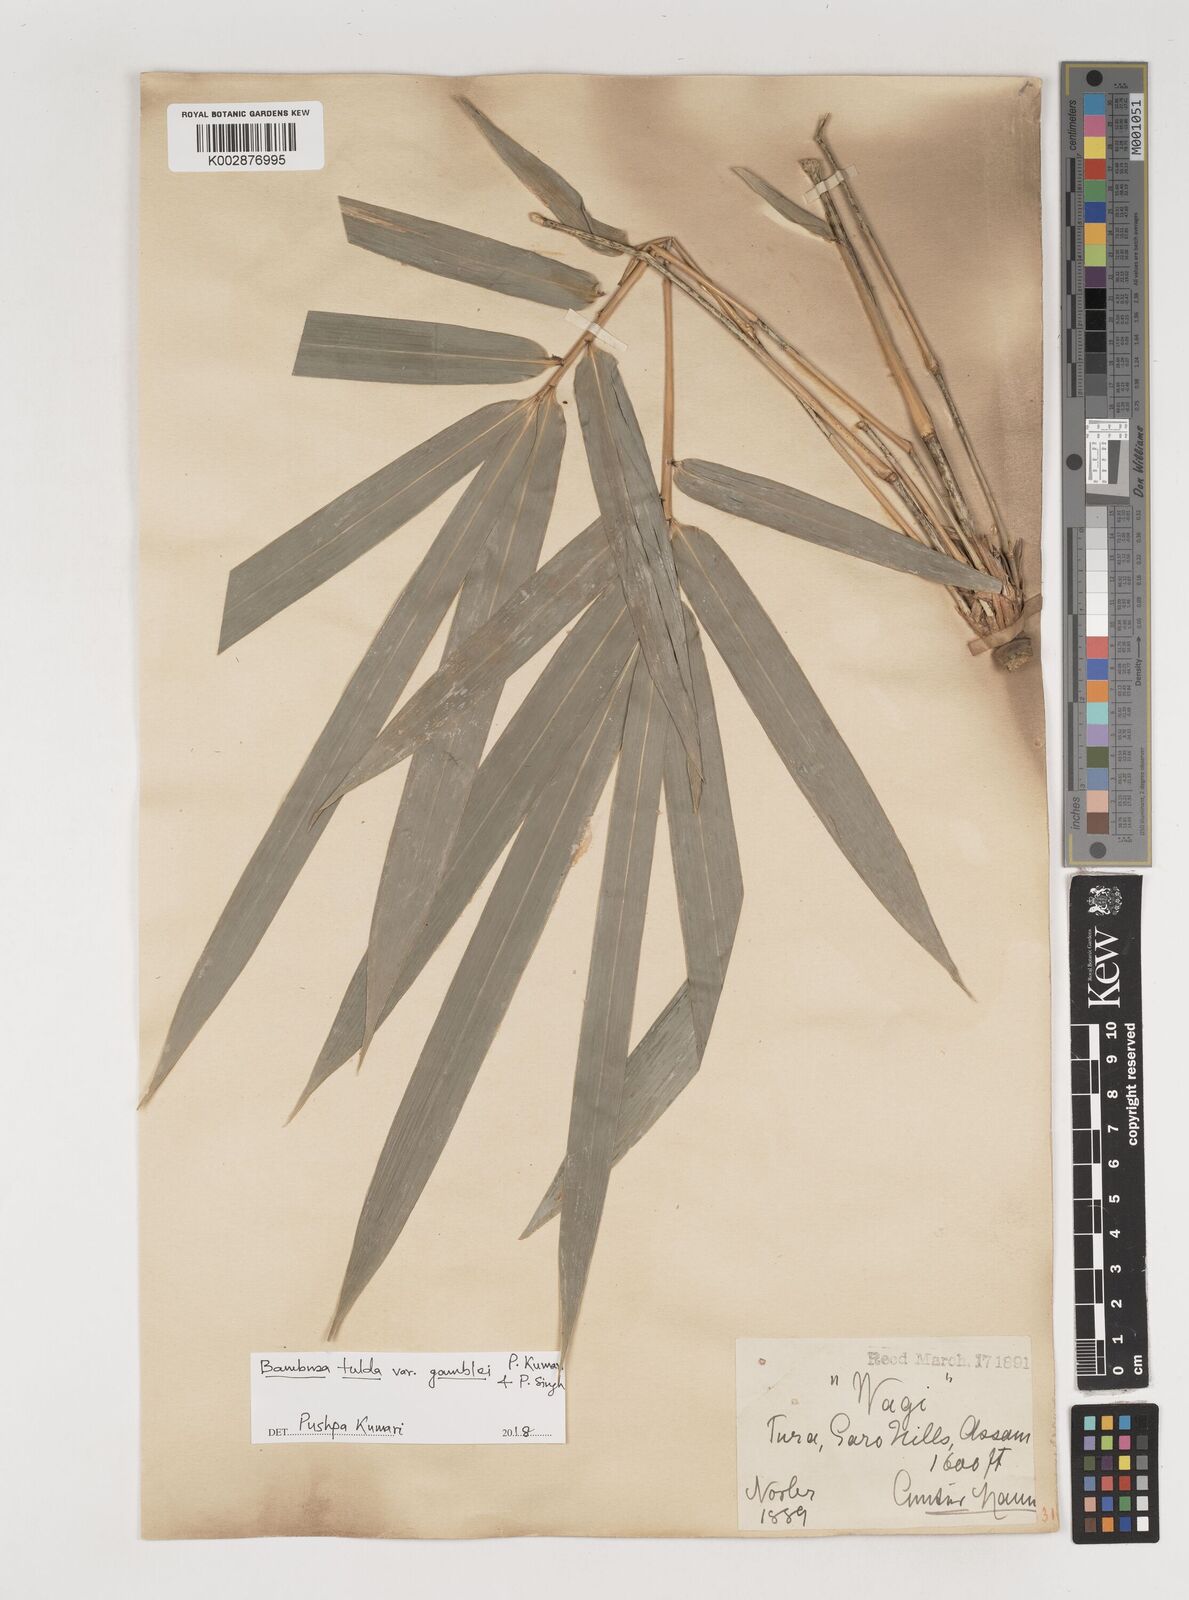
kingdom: Plantae
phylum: Tracheophyta
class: Liliopsida
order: Poales
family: Poaceae
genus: Bambusa
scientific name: Bambusa tulda
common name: Bengal bamboo
